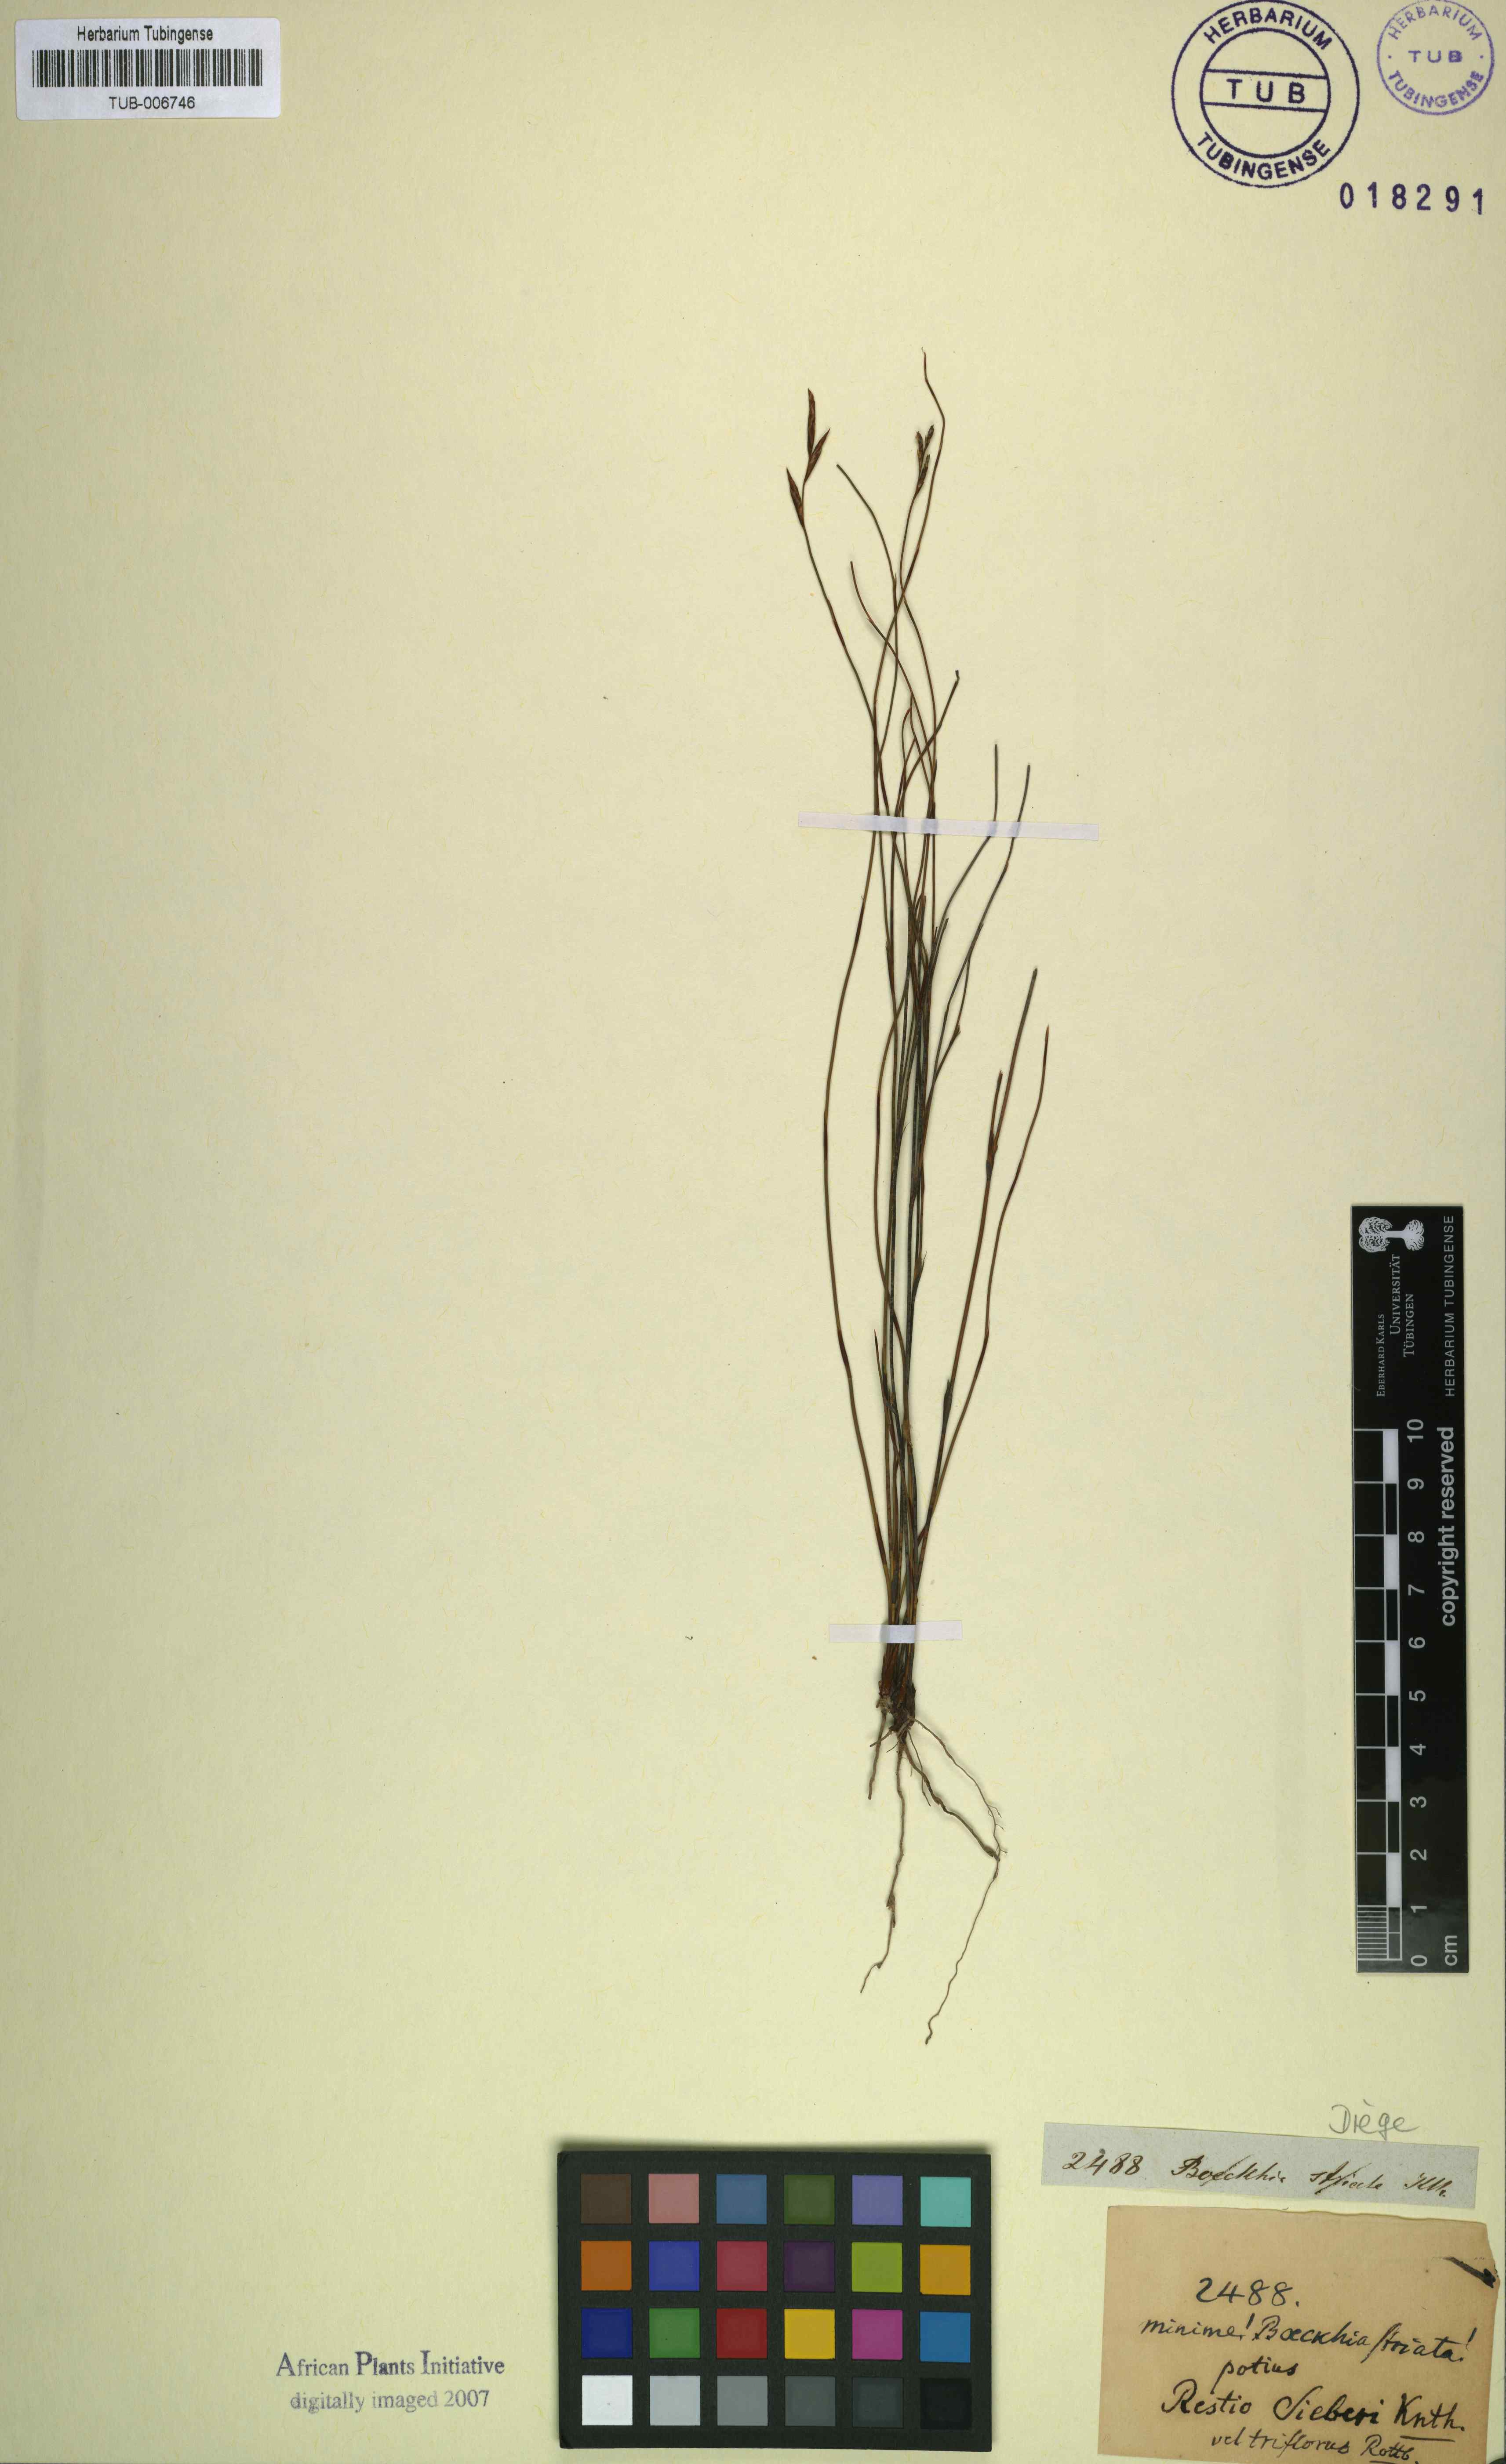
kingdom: Plantae
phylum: Tracheophyta
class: Liliopsida
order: Poales
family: Restionaceae
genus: Restio
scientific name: Restio sieberi
